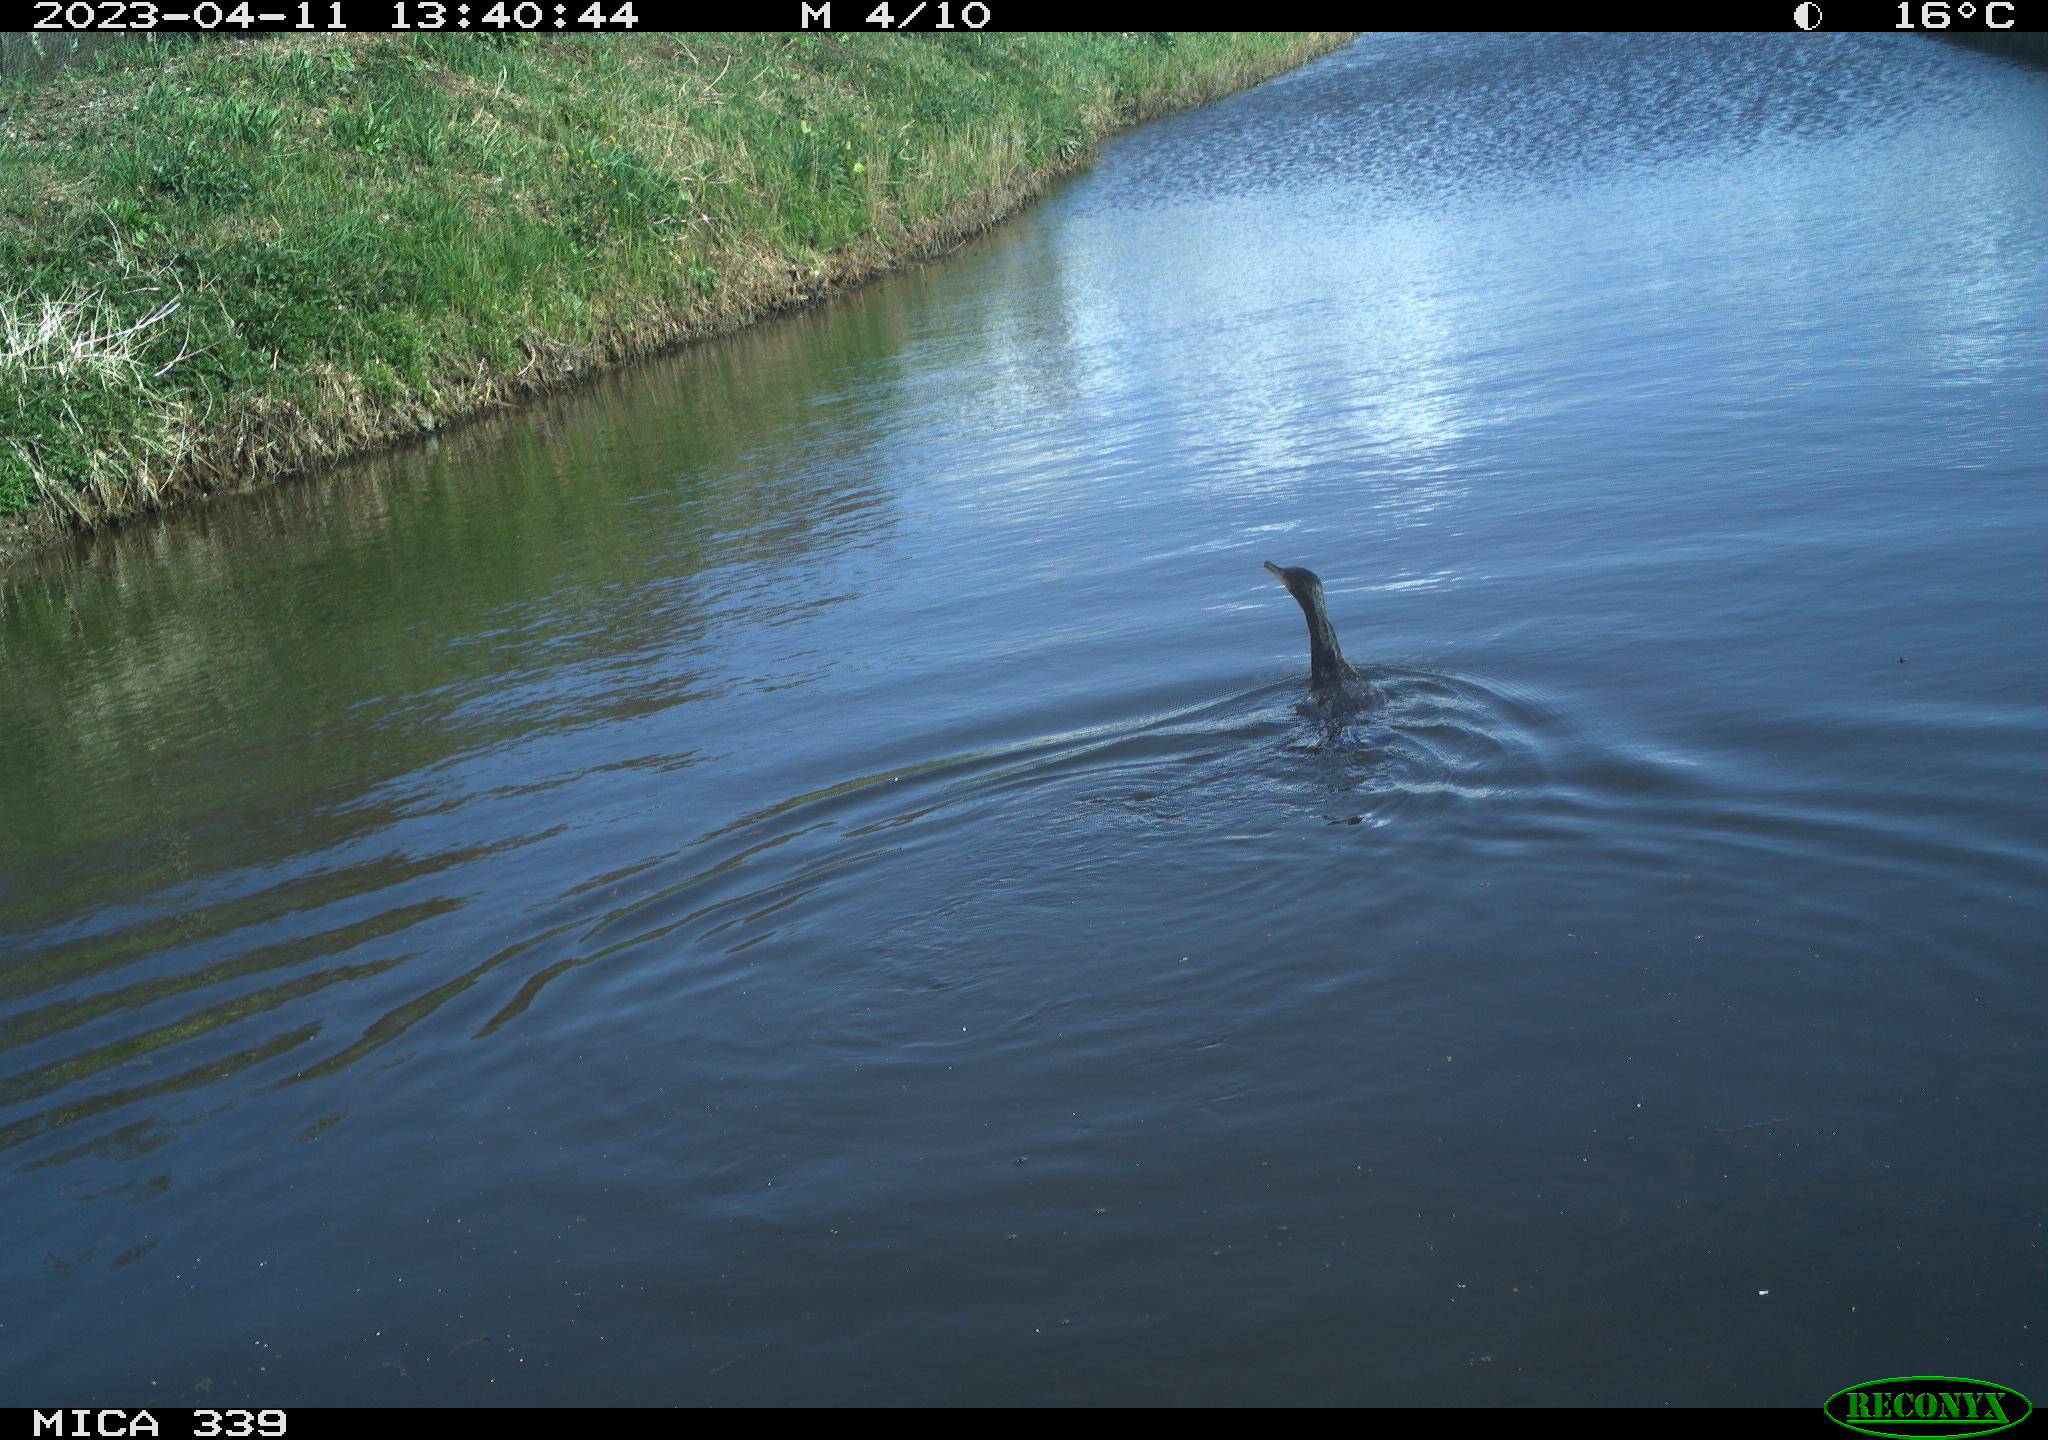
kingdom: Animalia
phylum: Chordata
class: Aves
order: Anseriformes
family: Anatidae
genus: Anas
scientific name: Anas
